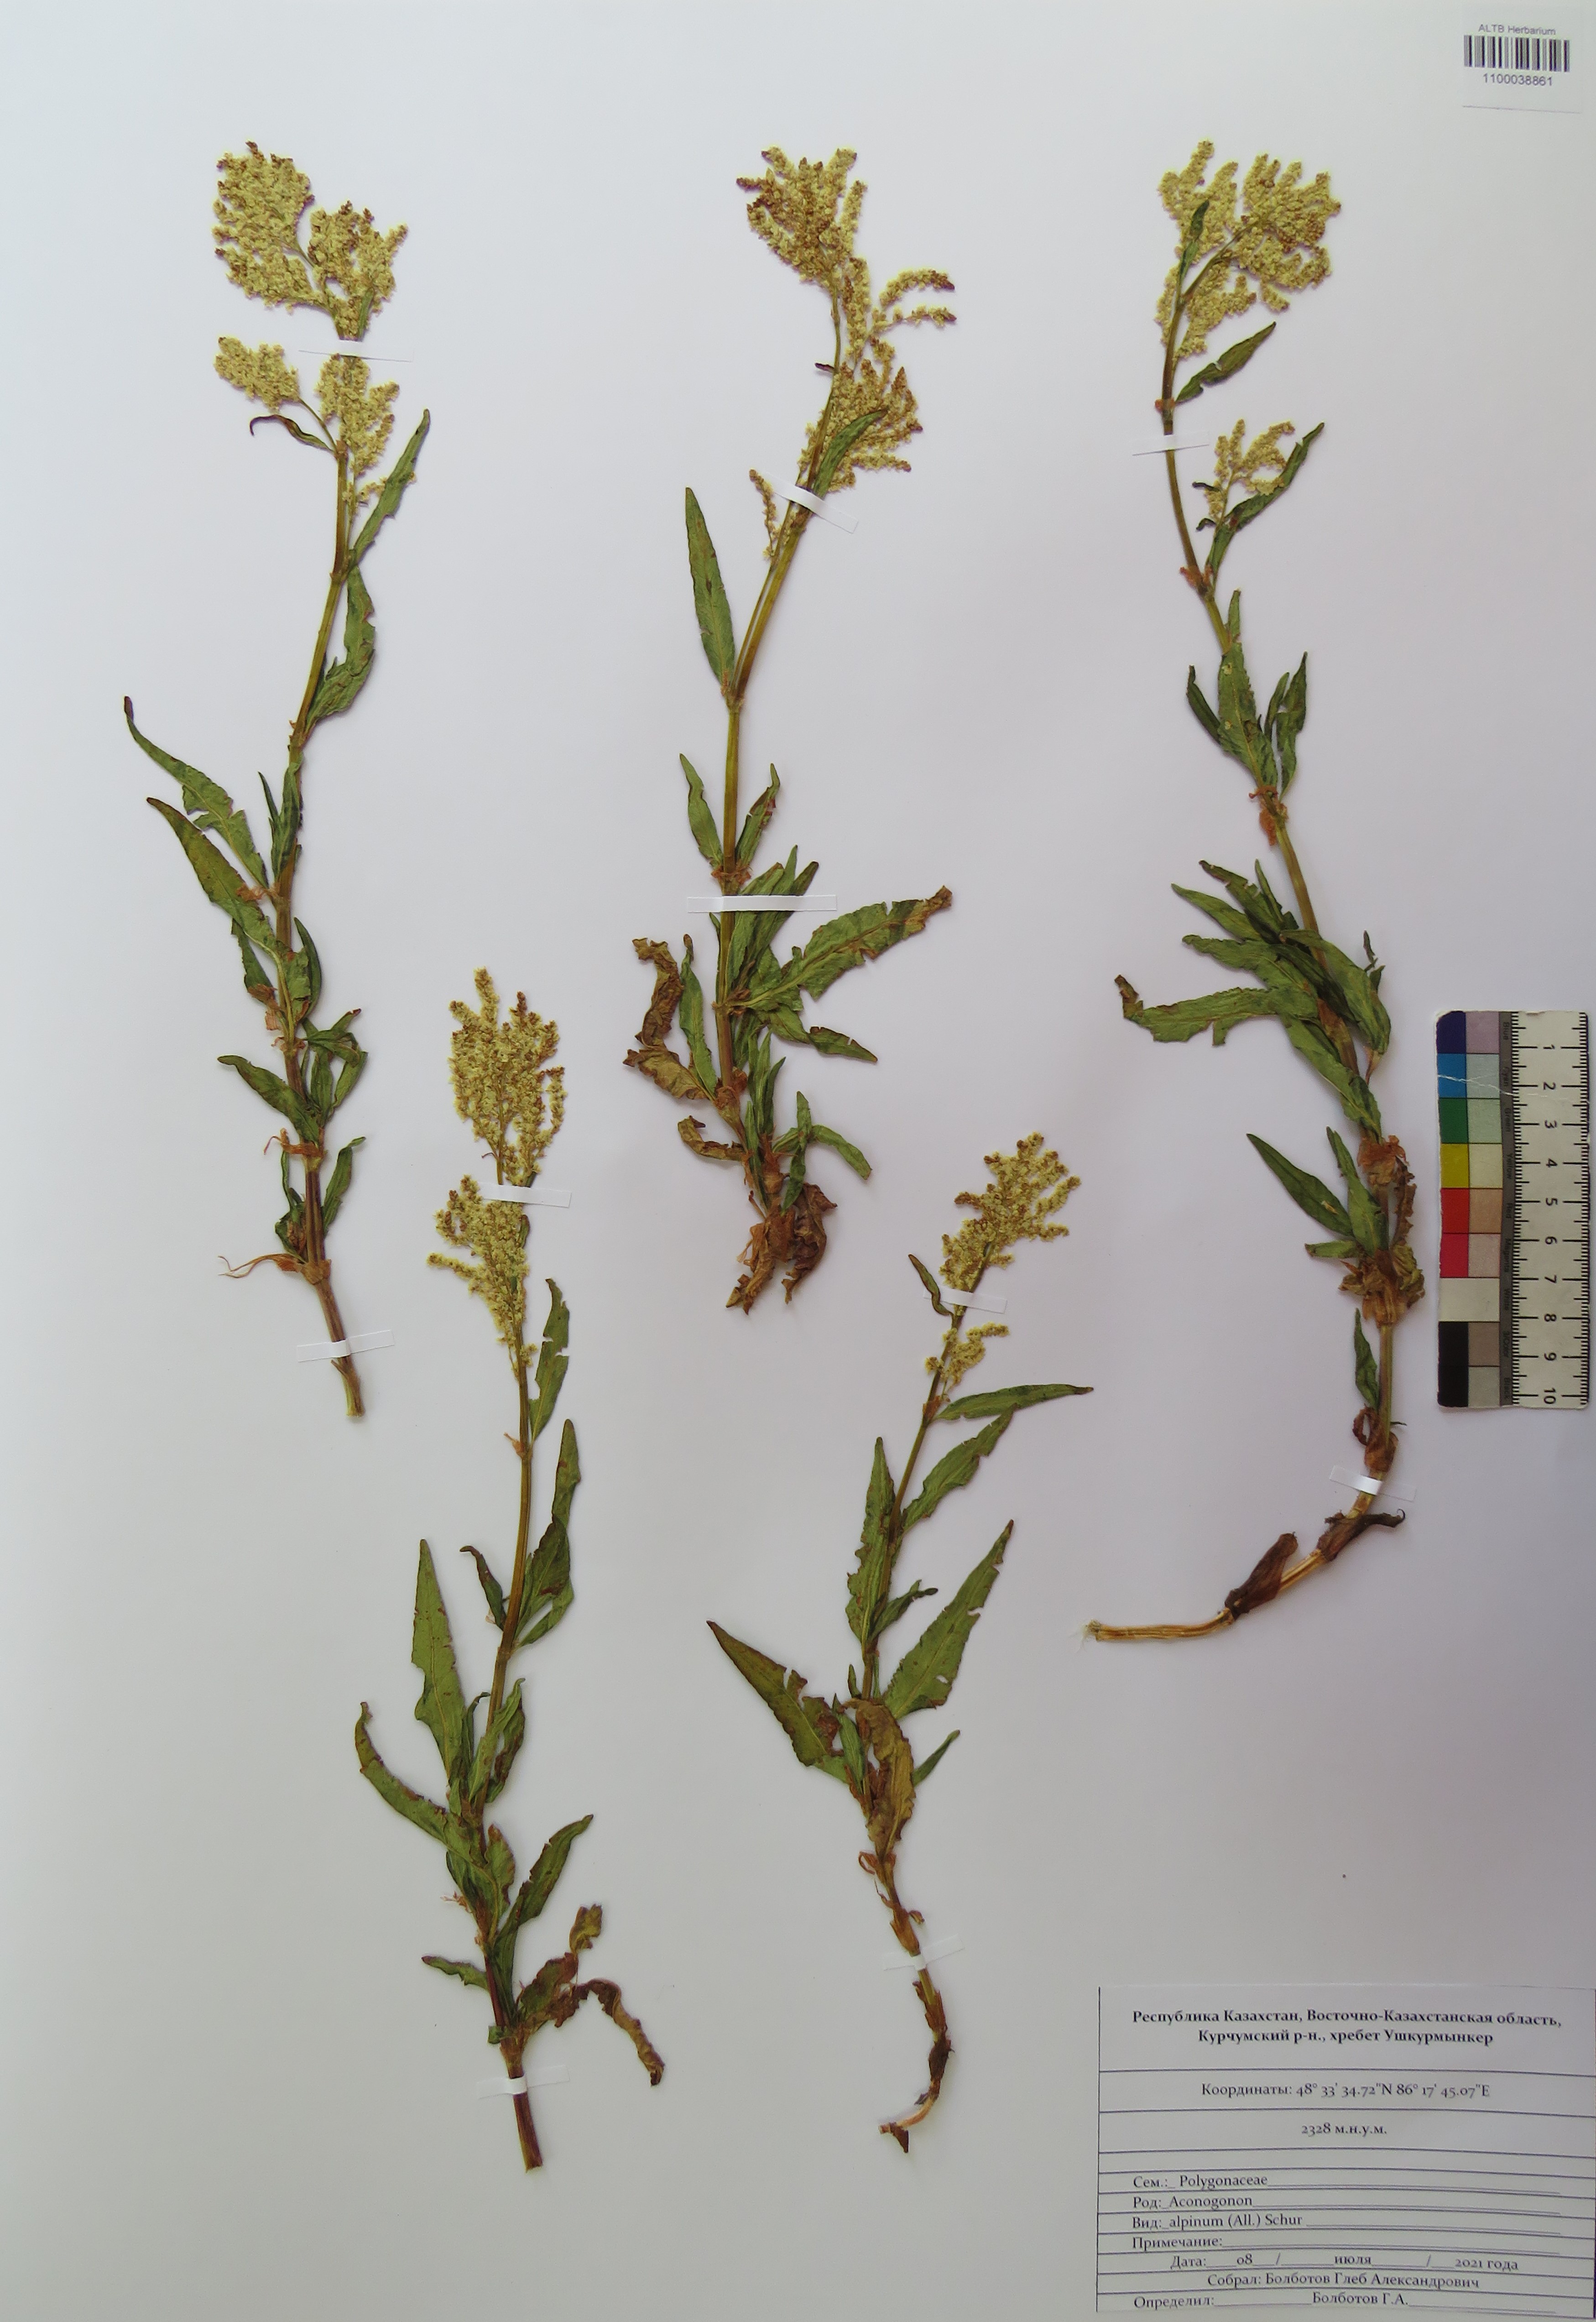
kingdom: Plantae
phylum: Tracheophyta
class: Magnoliopsida
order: Caryophyllales
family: Polygonaceae
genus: Koenigia
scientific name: Koenigia alpina
